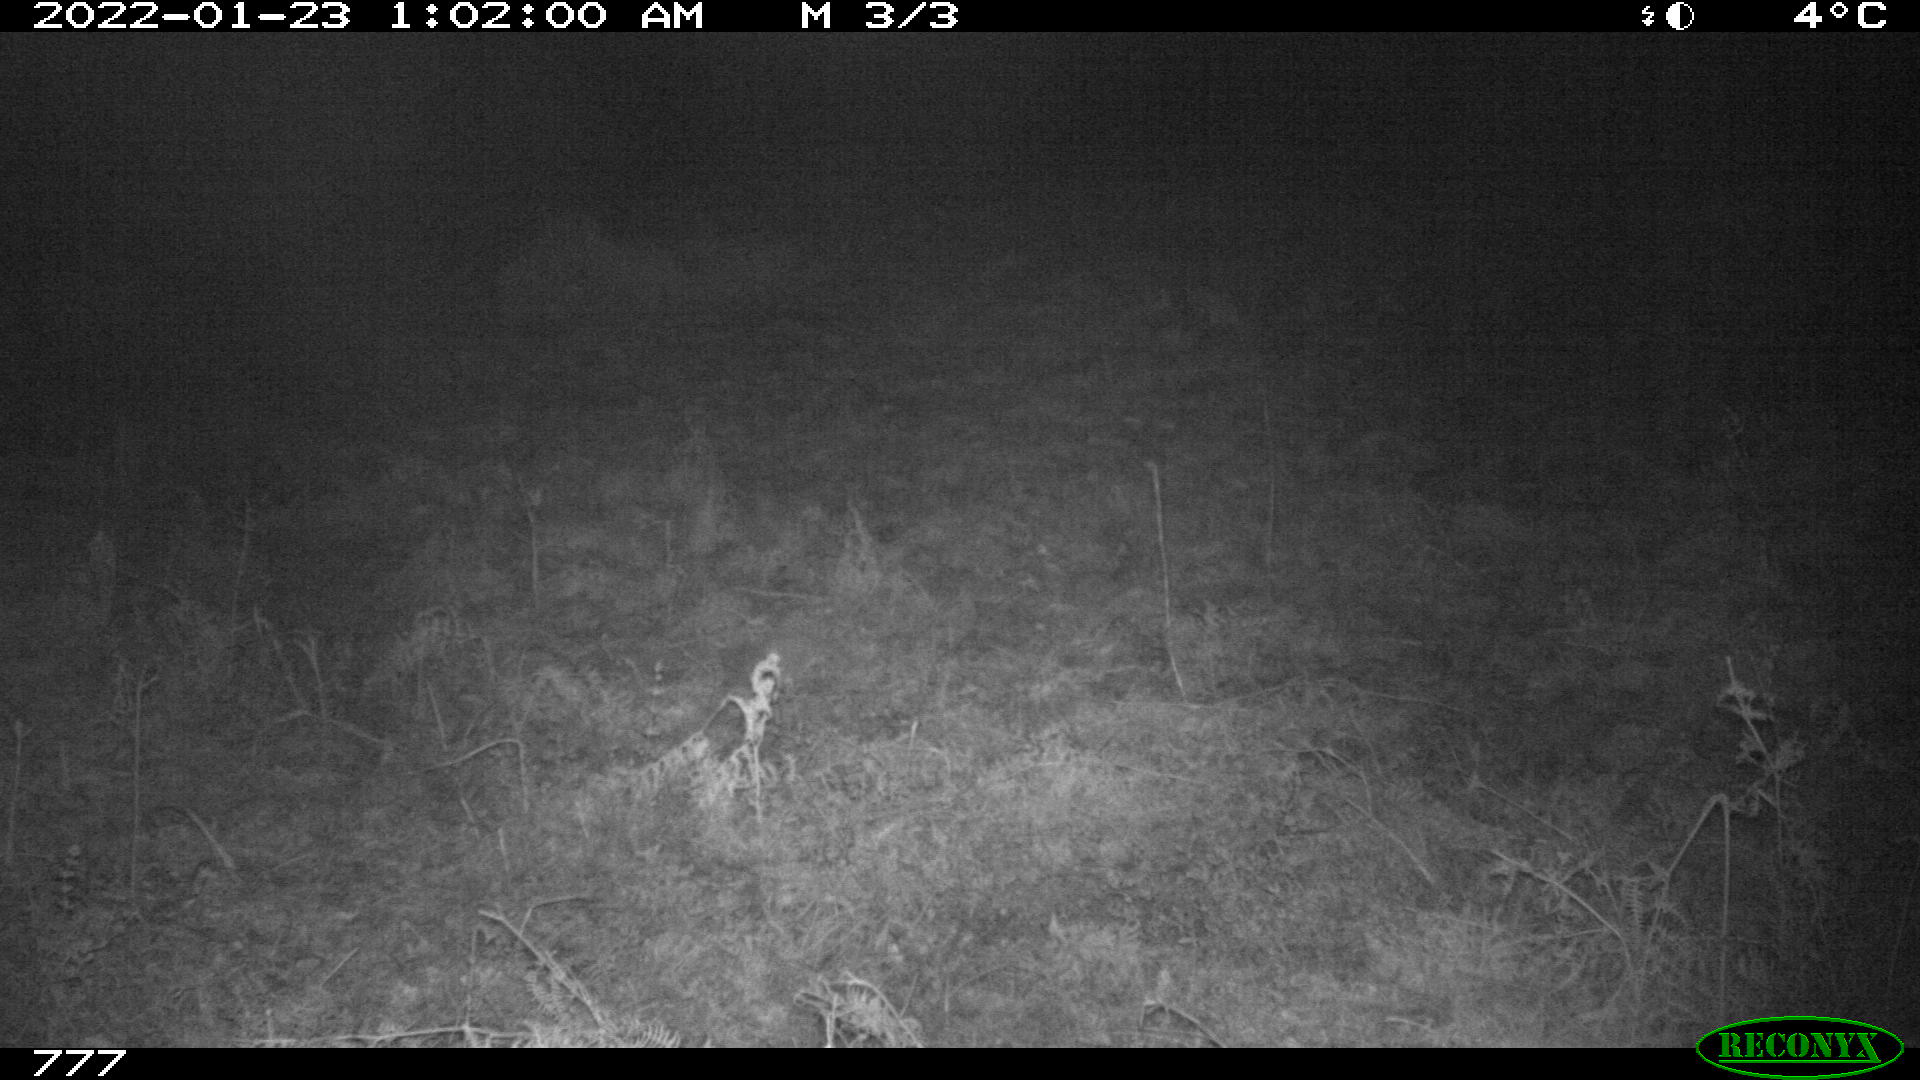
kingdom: Animalia
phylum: Chordata
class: Mammalia
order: Artiodactyla
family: Bovidae
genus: Bos
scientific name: Bos taurus
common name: Domesticated cattle
